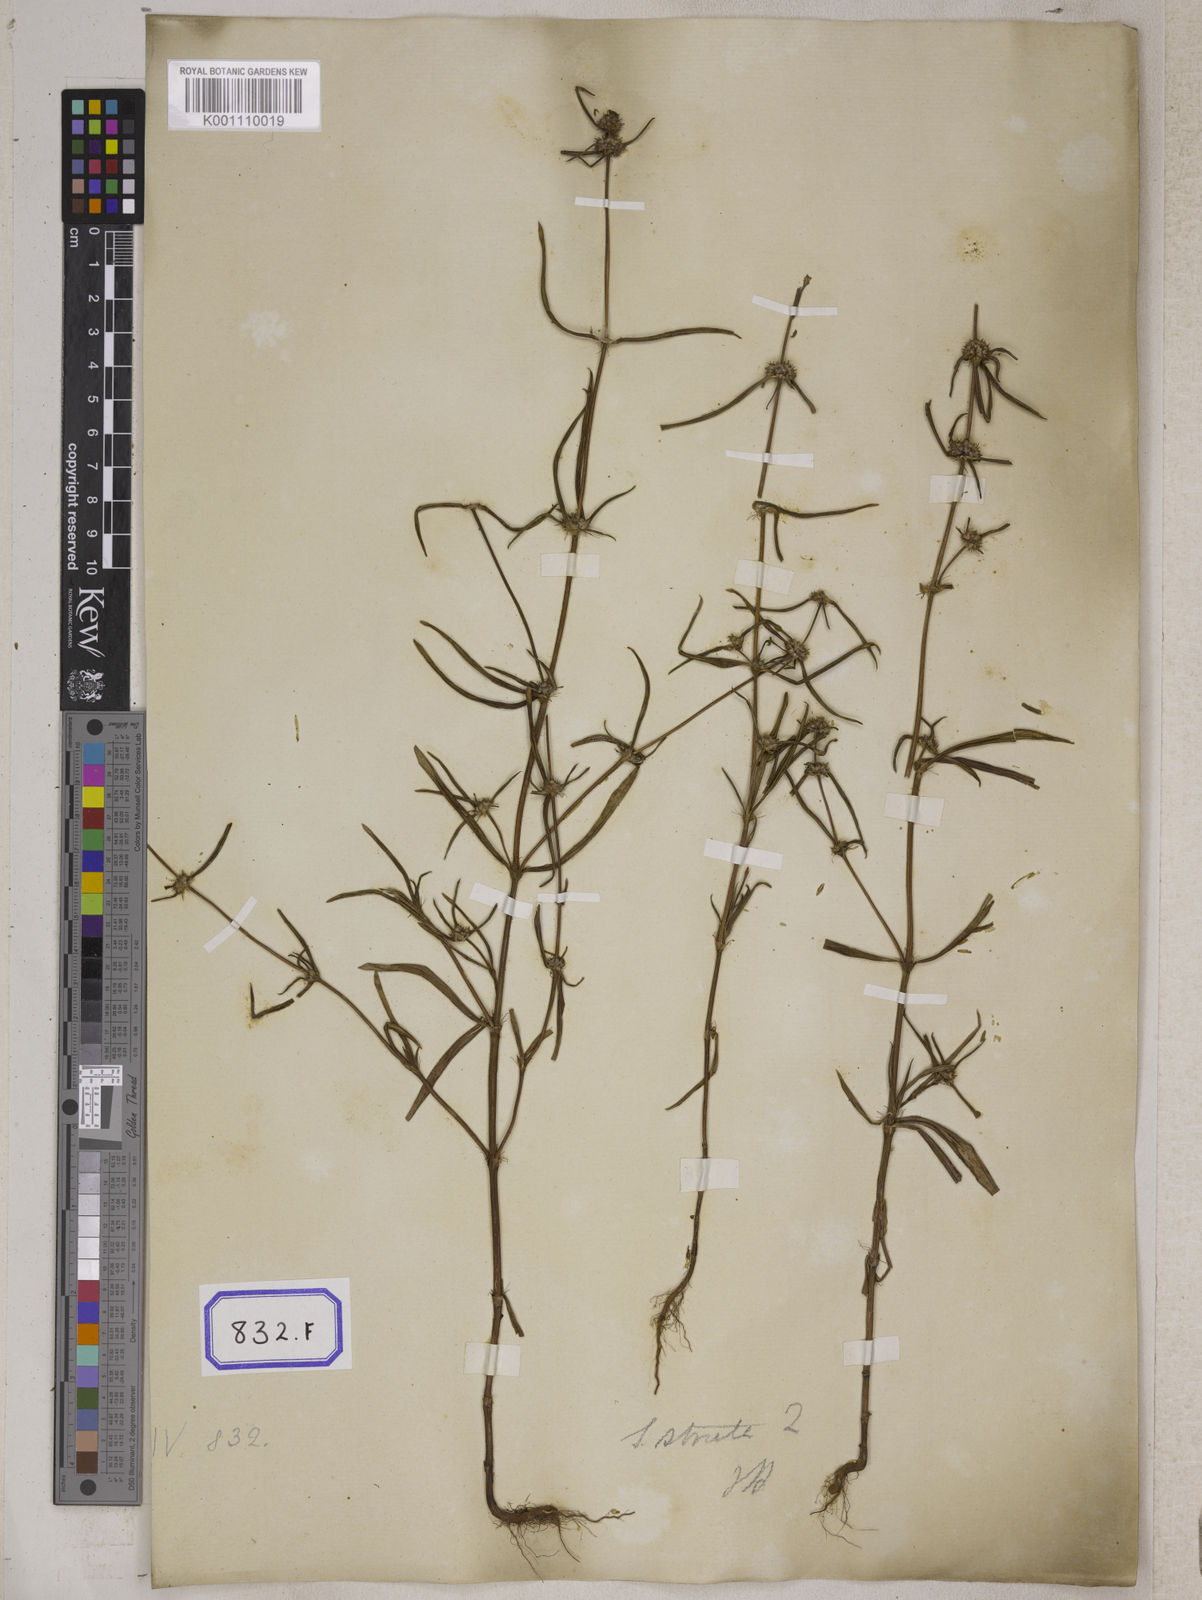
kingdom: Plantae
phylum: Tracheophyta
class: Magnoliopsida
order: Gentianales
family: Rubiaceae
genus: Spermacoce
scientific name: Spermacoce
